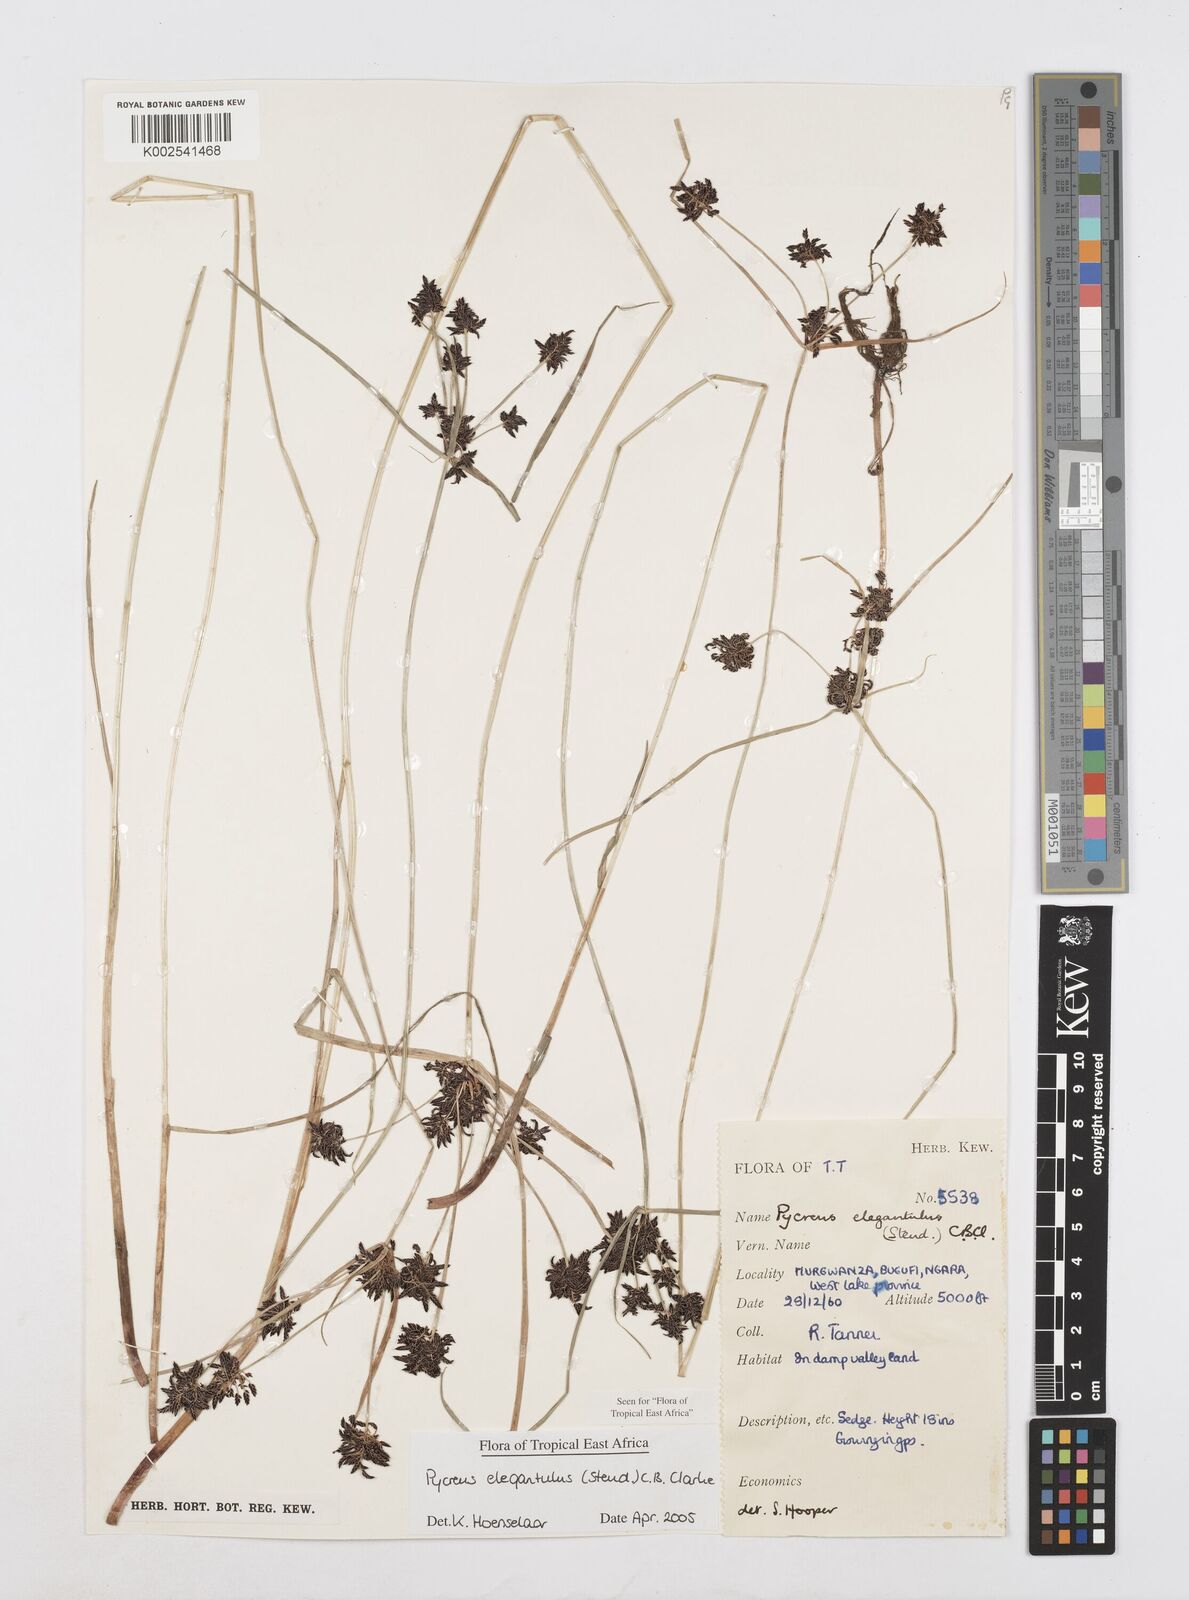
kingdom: Plantae
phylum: Tracheophyta
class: Liliopsida
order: Poales
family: Cyperaceae
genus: Cyperus
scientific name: Cyperus elegantulus
